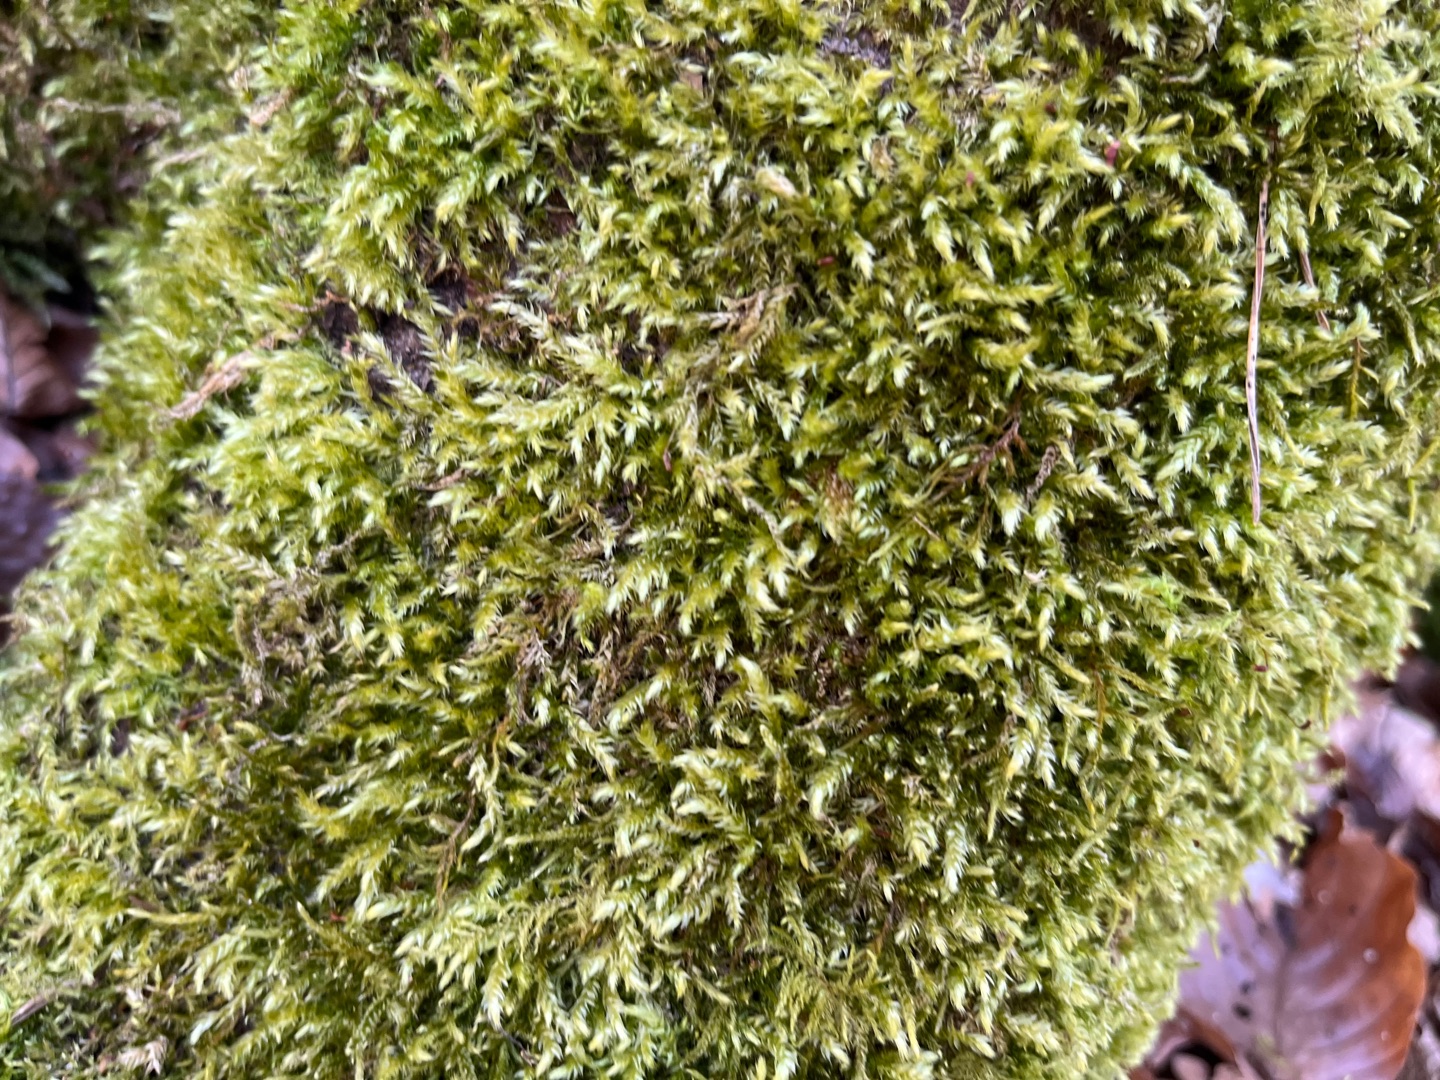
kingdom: Plantae
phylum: Bryophyta
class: Bryopsida
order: Hypnales
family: Brachytheciaceae
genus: Brachythecium
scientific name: Brachythecium rutabulum
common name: Almindelig kortkapsel
